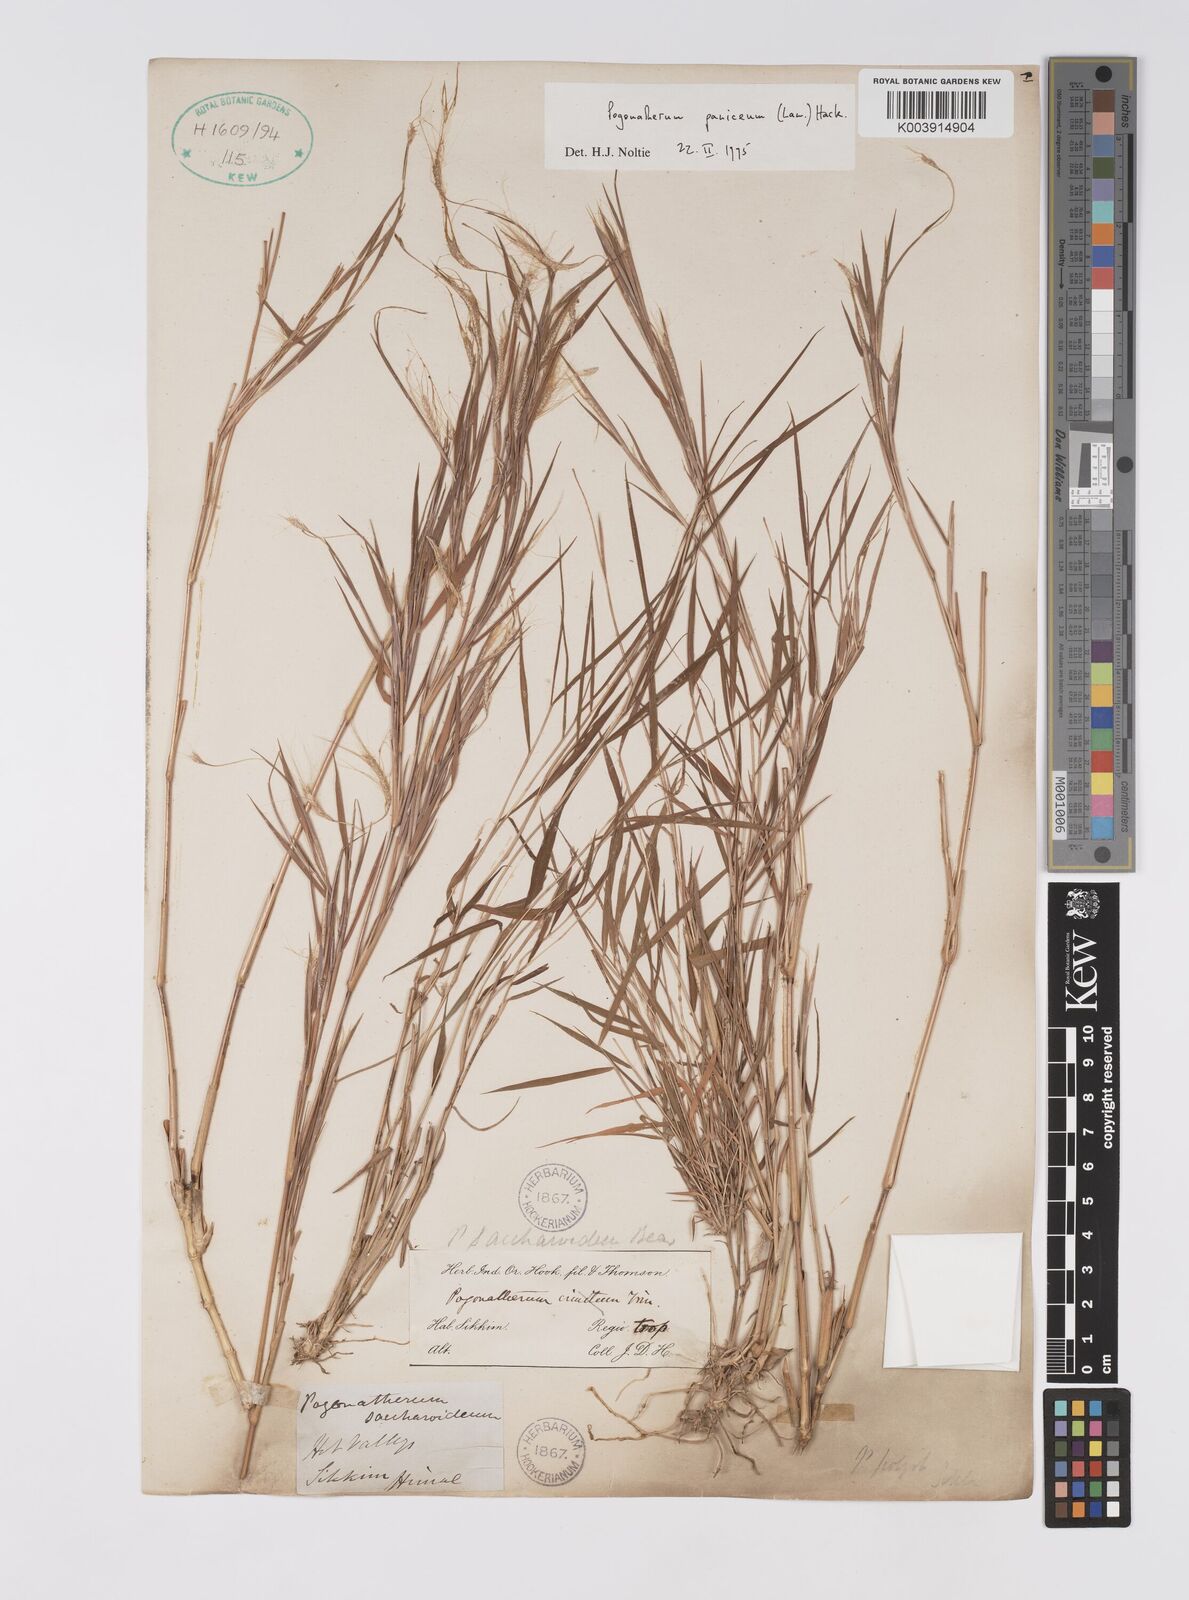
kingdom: Plantae
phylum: Tracheophyta
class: Liliopsida
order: Poales
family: Poaceae
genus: Pogonatherum
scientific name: Pogonatherum paniceum
